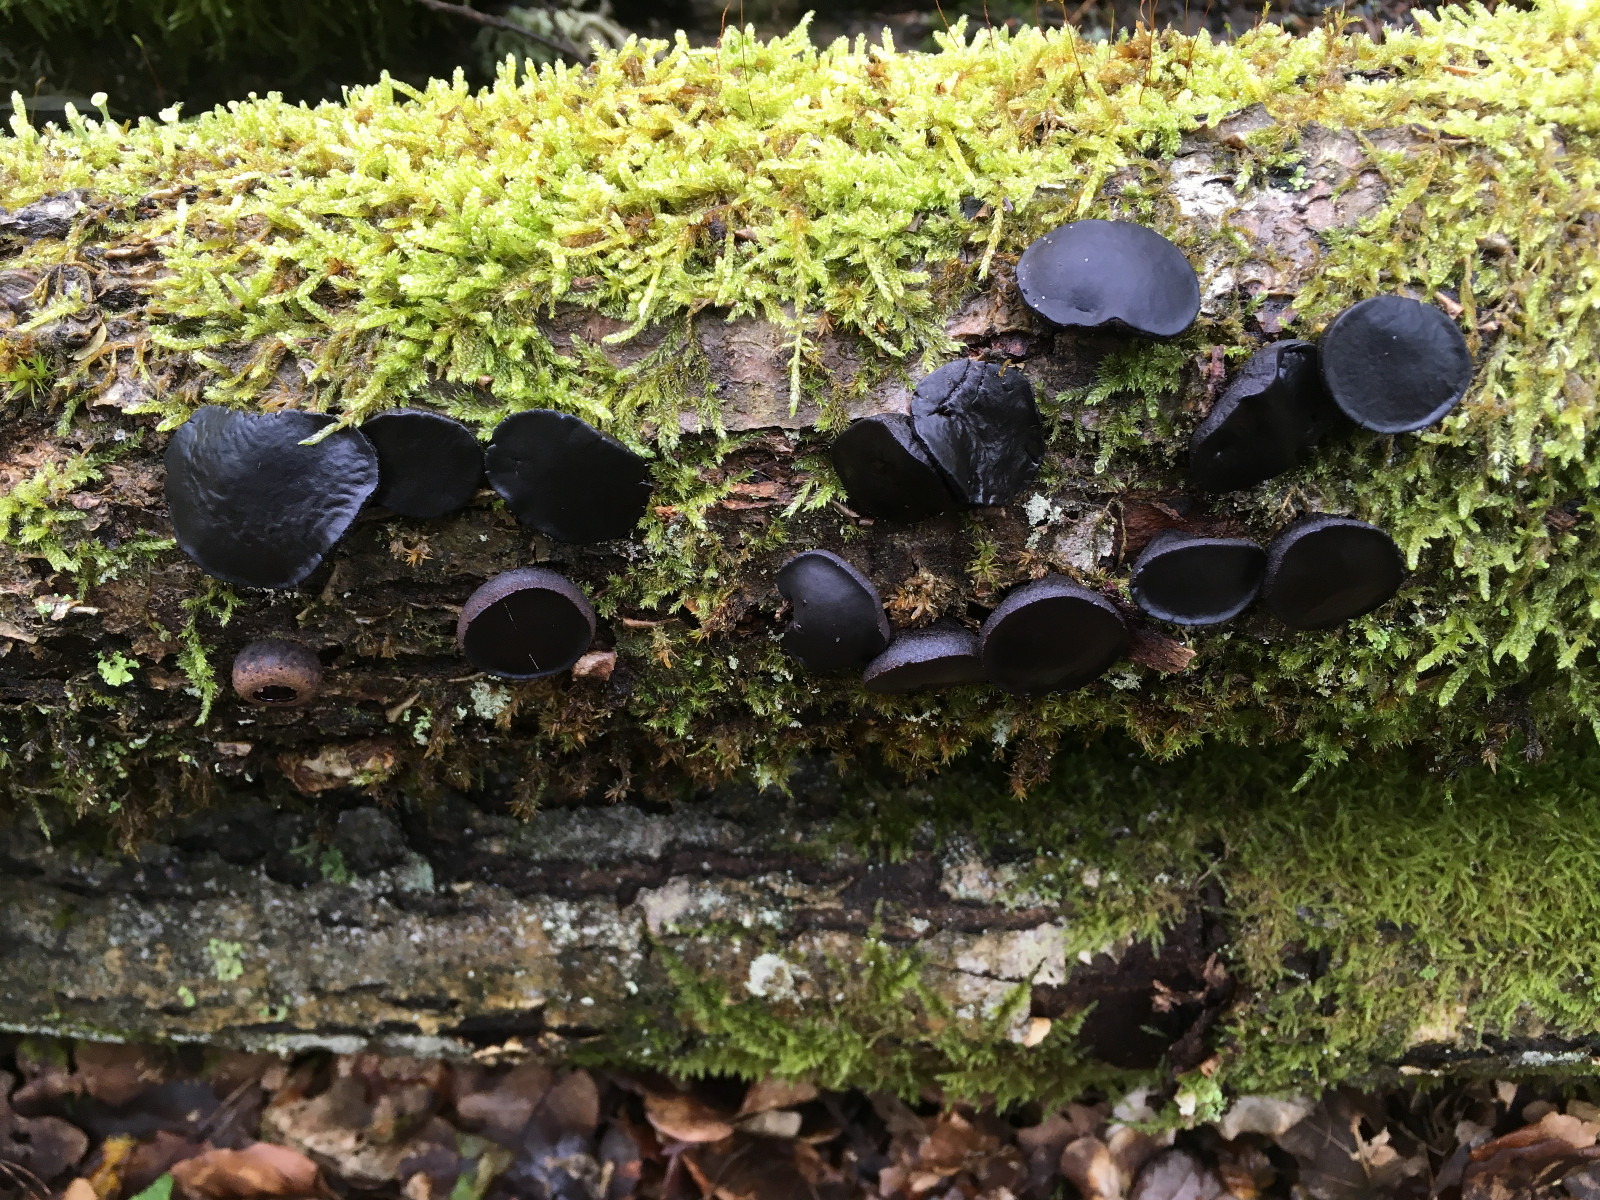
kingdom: Fungi
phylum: Ascomycota
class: Leotiomycetes
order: Phacidiales
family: Phacidiaceae
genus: Bulgaria
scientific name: Bulgaria inquinans
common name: afsmittende topsvamp
